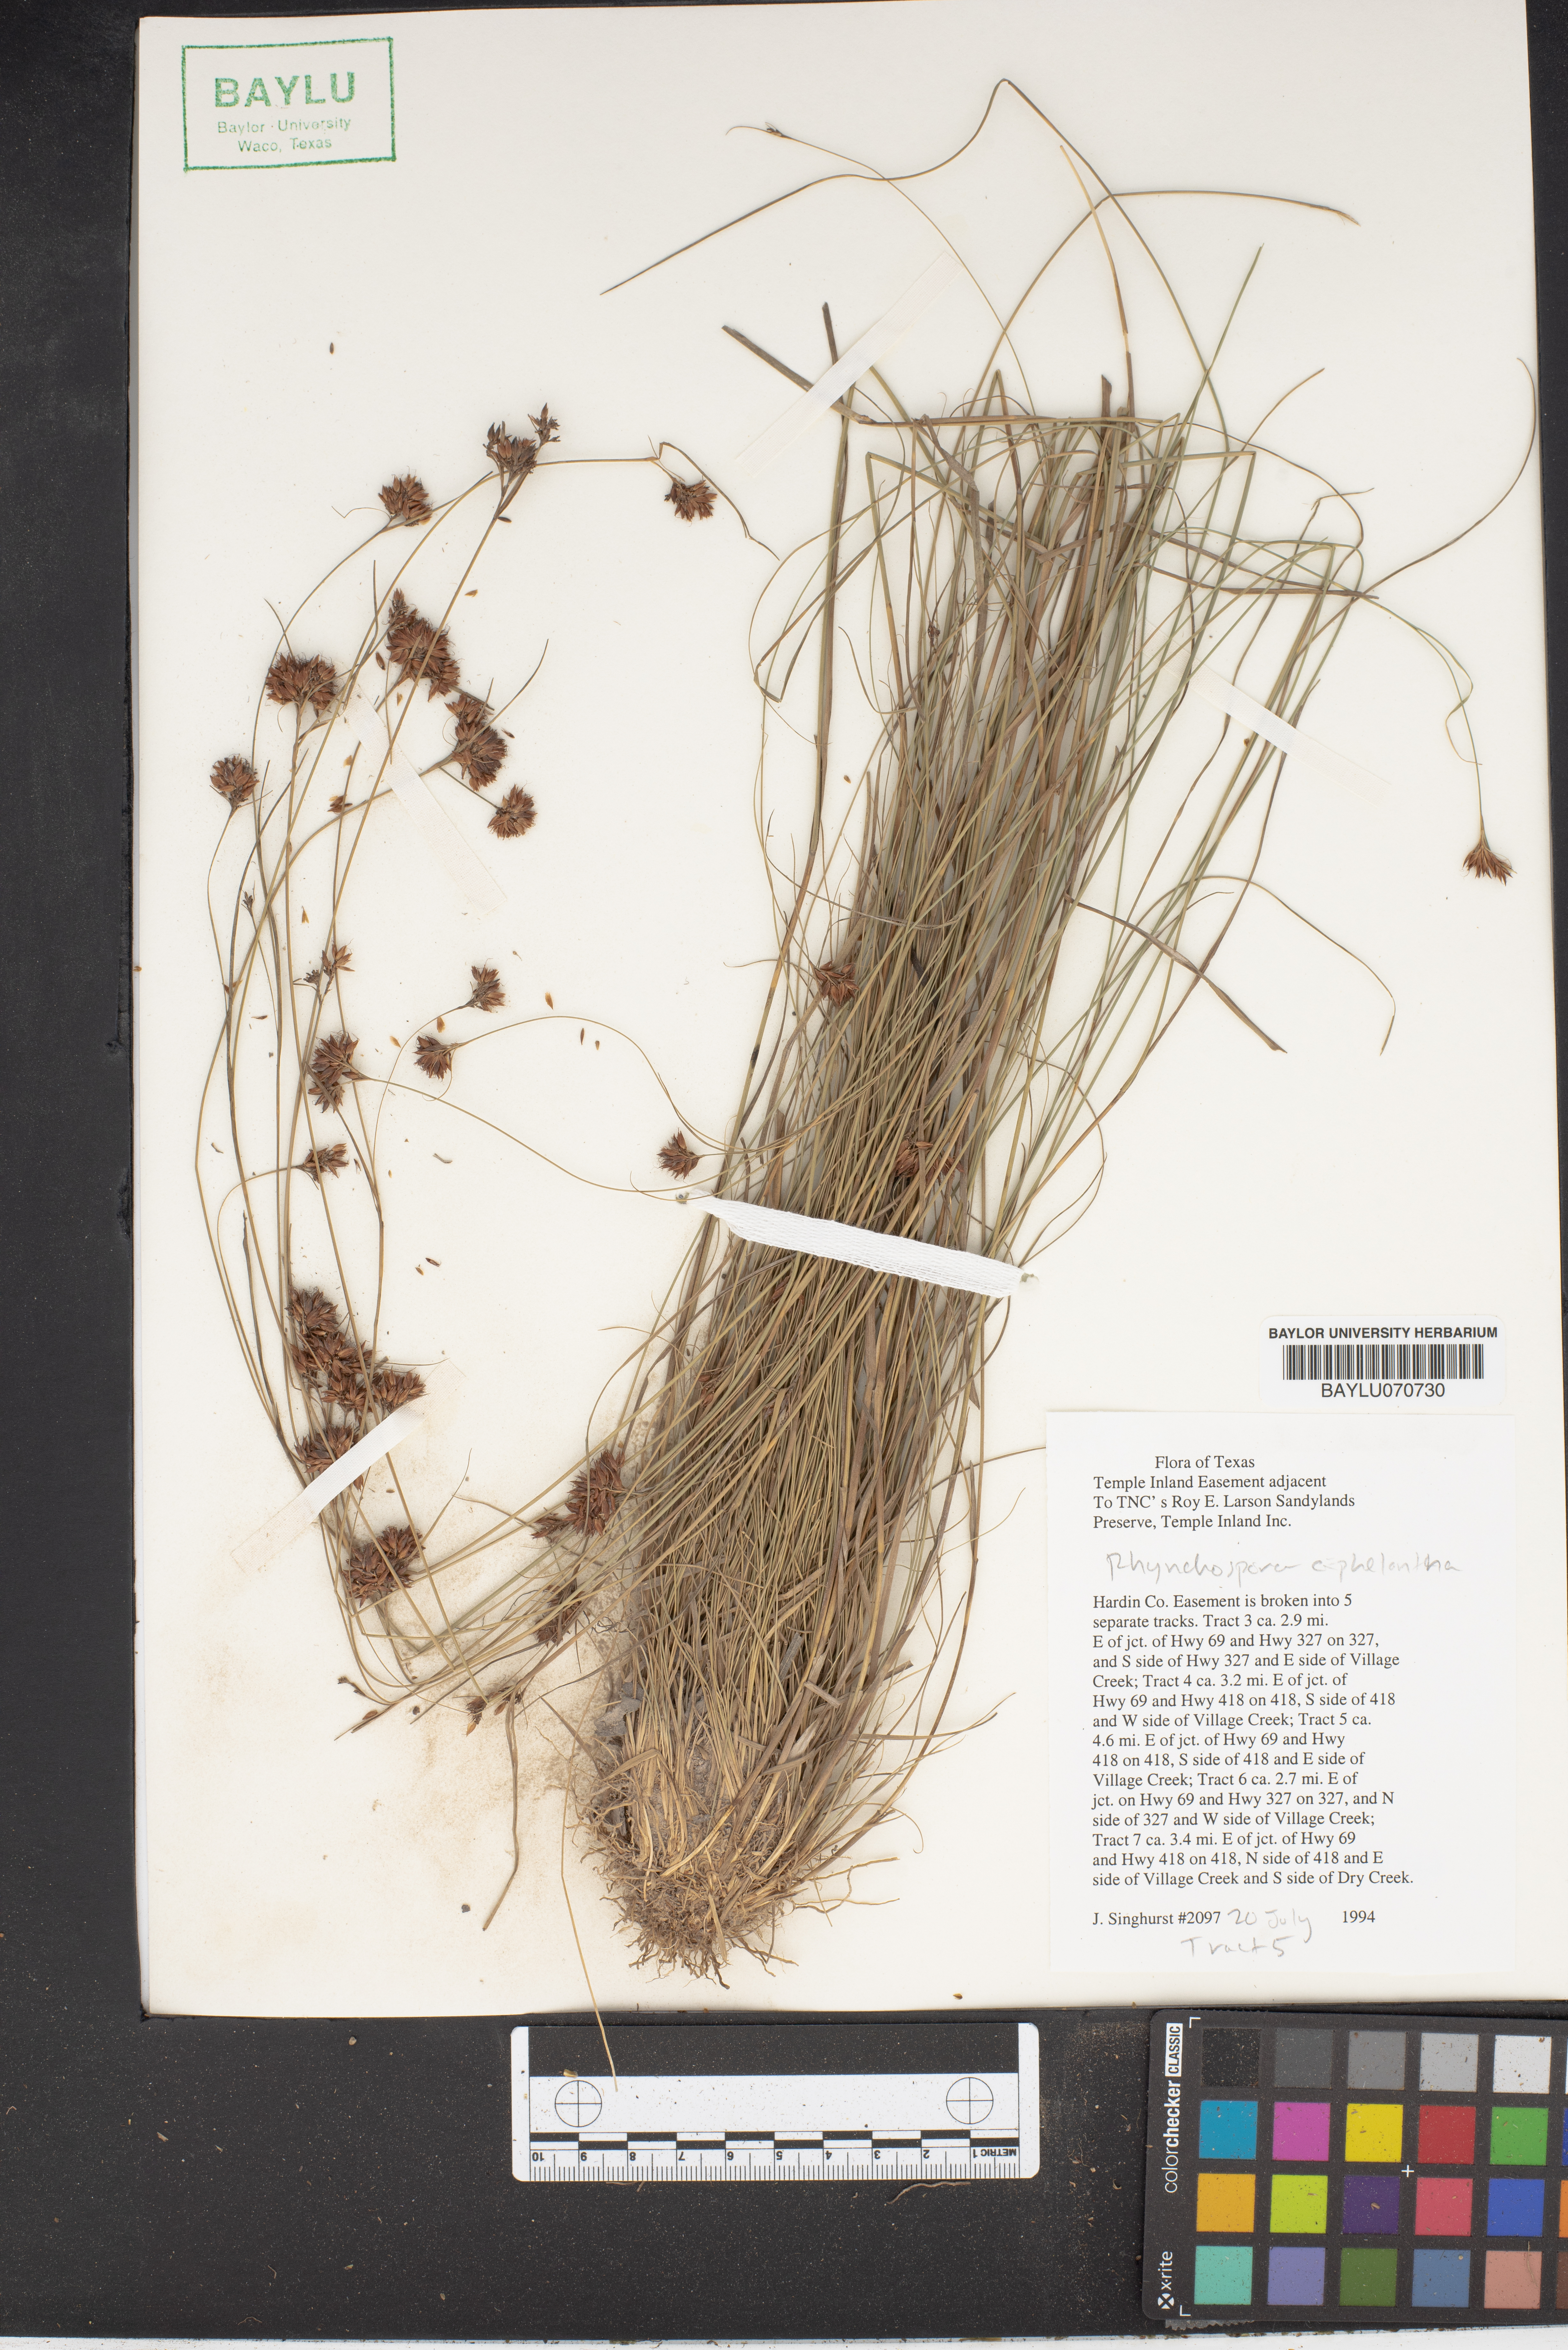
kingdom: Plantae
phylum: Tracheophyta
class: Liliopsida
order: Poales
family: Cyperaceae
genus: Rhynchospora
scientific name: Rhynchospora cephalantha
